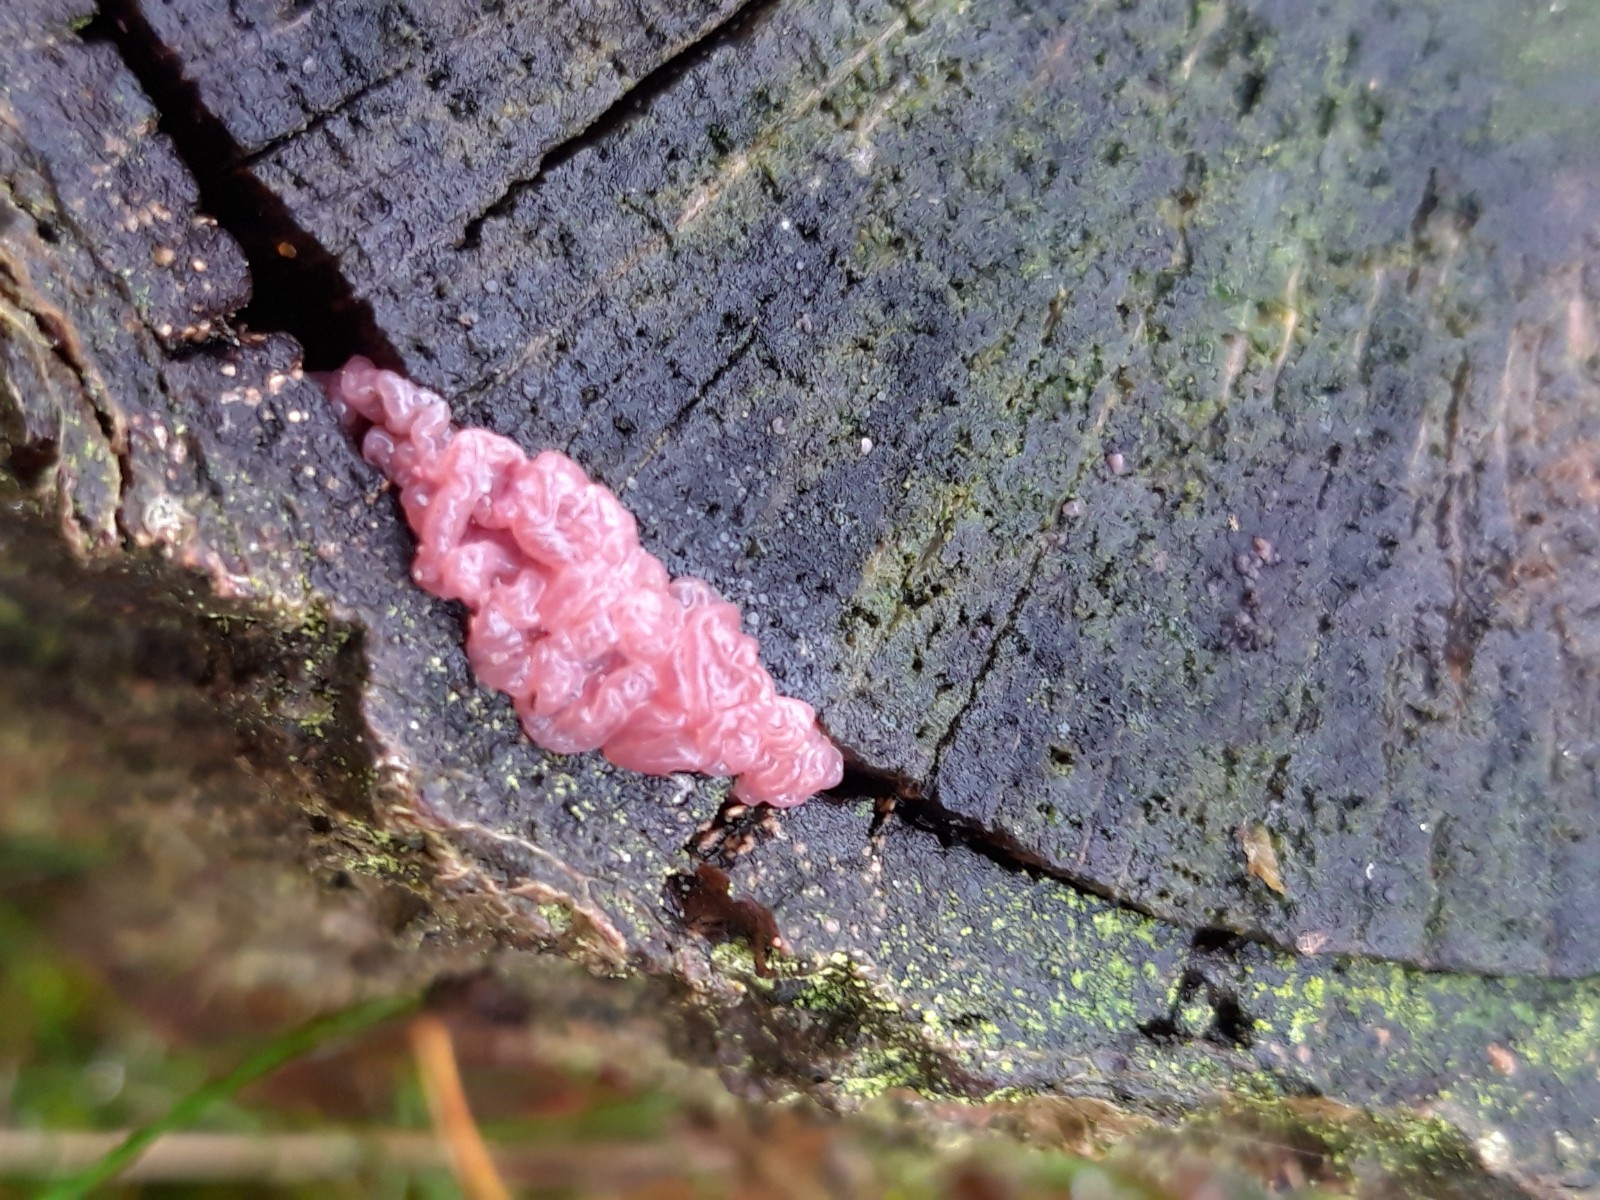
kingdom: Fungi
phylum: Ascomycota
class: Leotiomycetes
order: Helotiales
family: Gelatinodiscaceae
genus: Ascocoryne
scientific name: Ascocoryne sarcoides
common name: rødlilla sejskive
